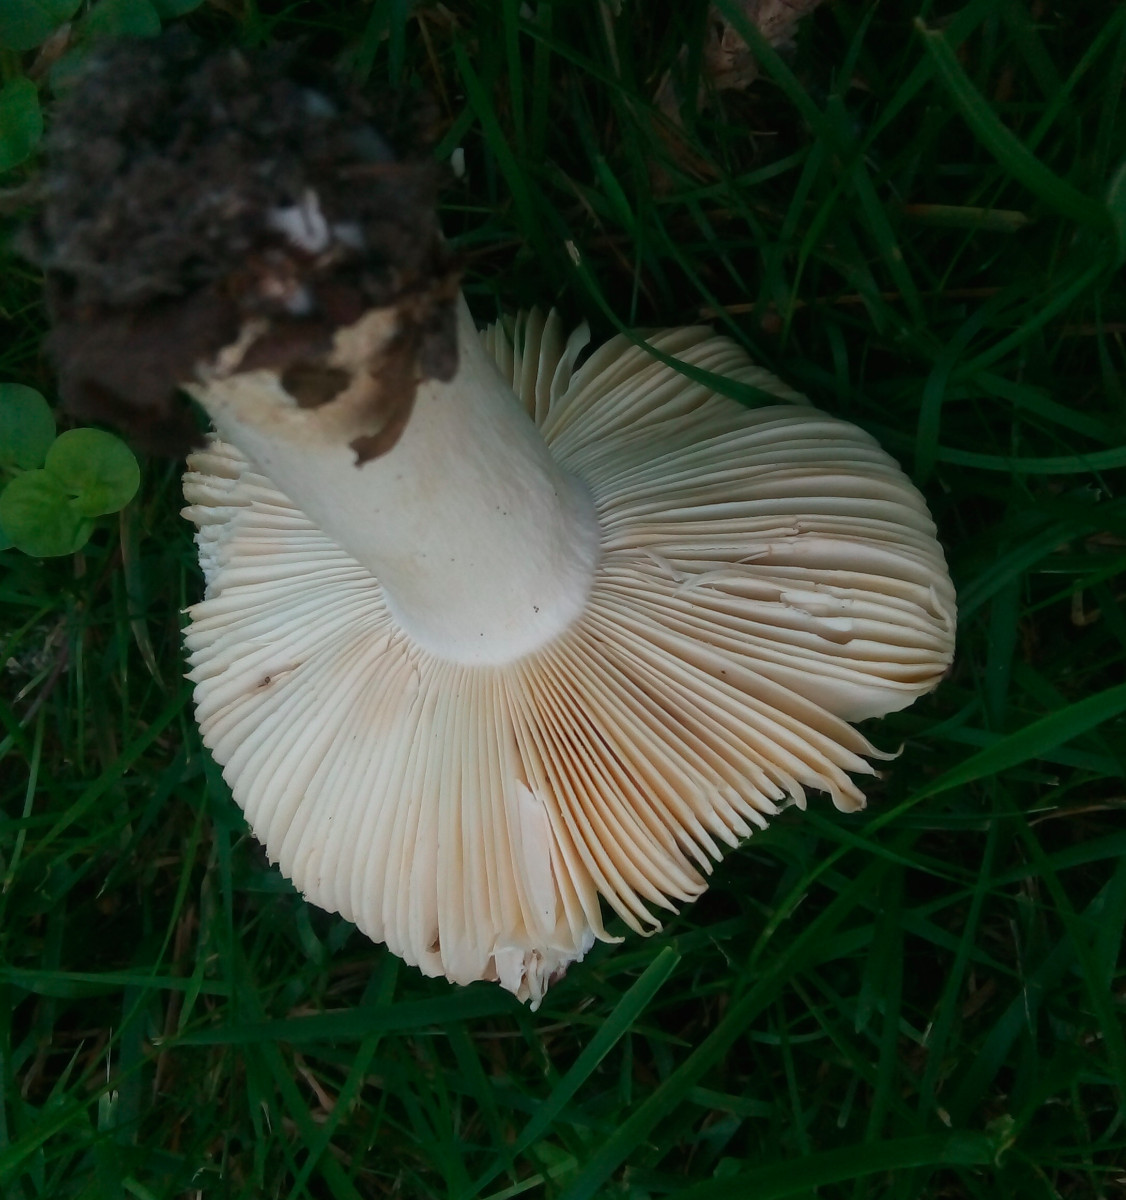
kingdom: Fungi
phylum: Basidiomycota
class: Agaricomycetes
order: Russulales
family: Russulaceae
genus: Russula
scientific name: Russula graveolens
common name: bugtet skørhat
